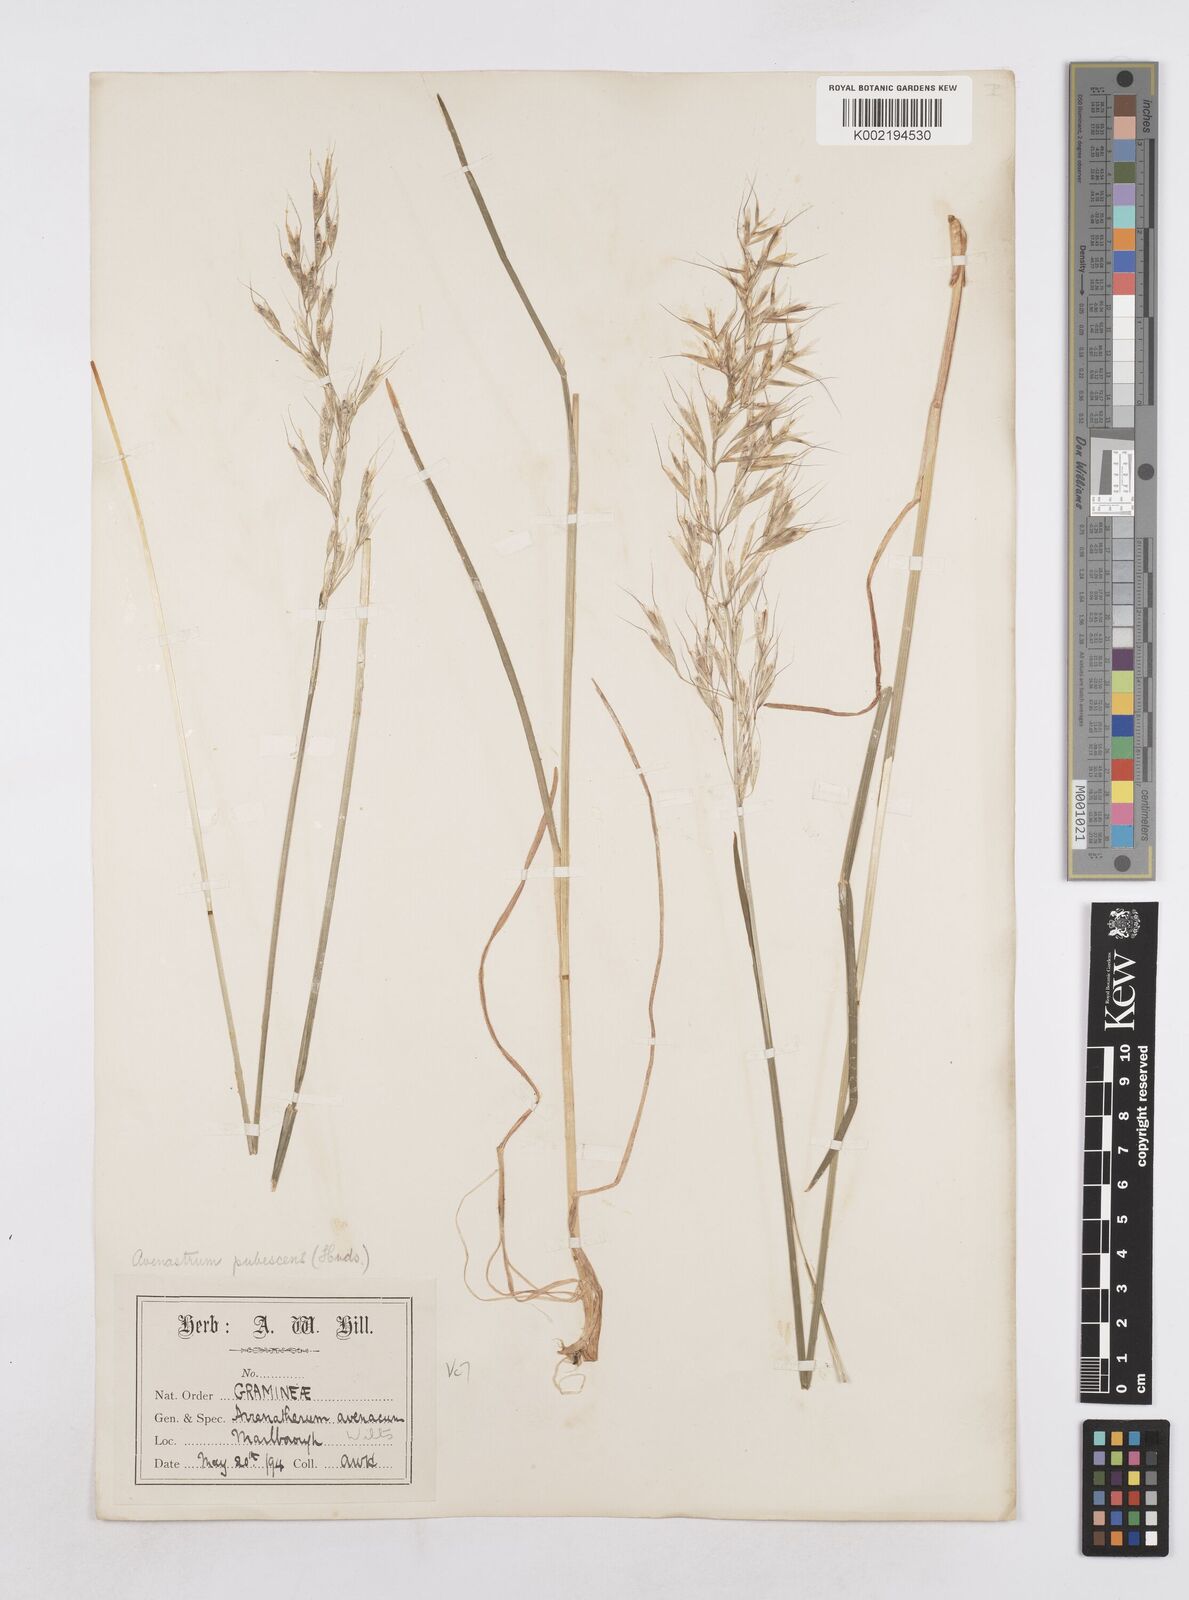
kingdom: Plantae
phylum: Tracheophyta
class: Liliopsida
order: Poales
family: Poaceae
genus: Avenula
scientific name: Avenula pubescens
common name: Downy alpine oatgrass
